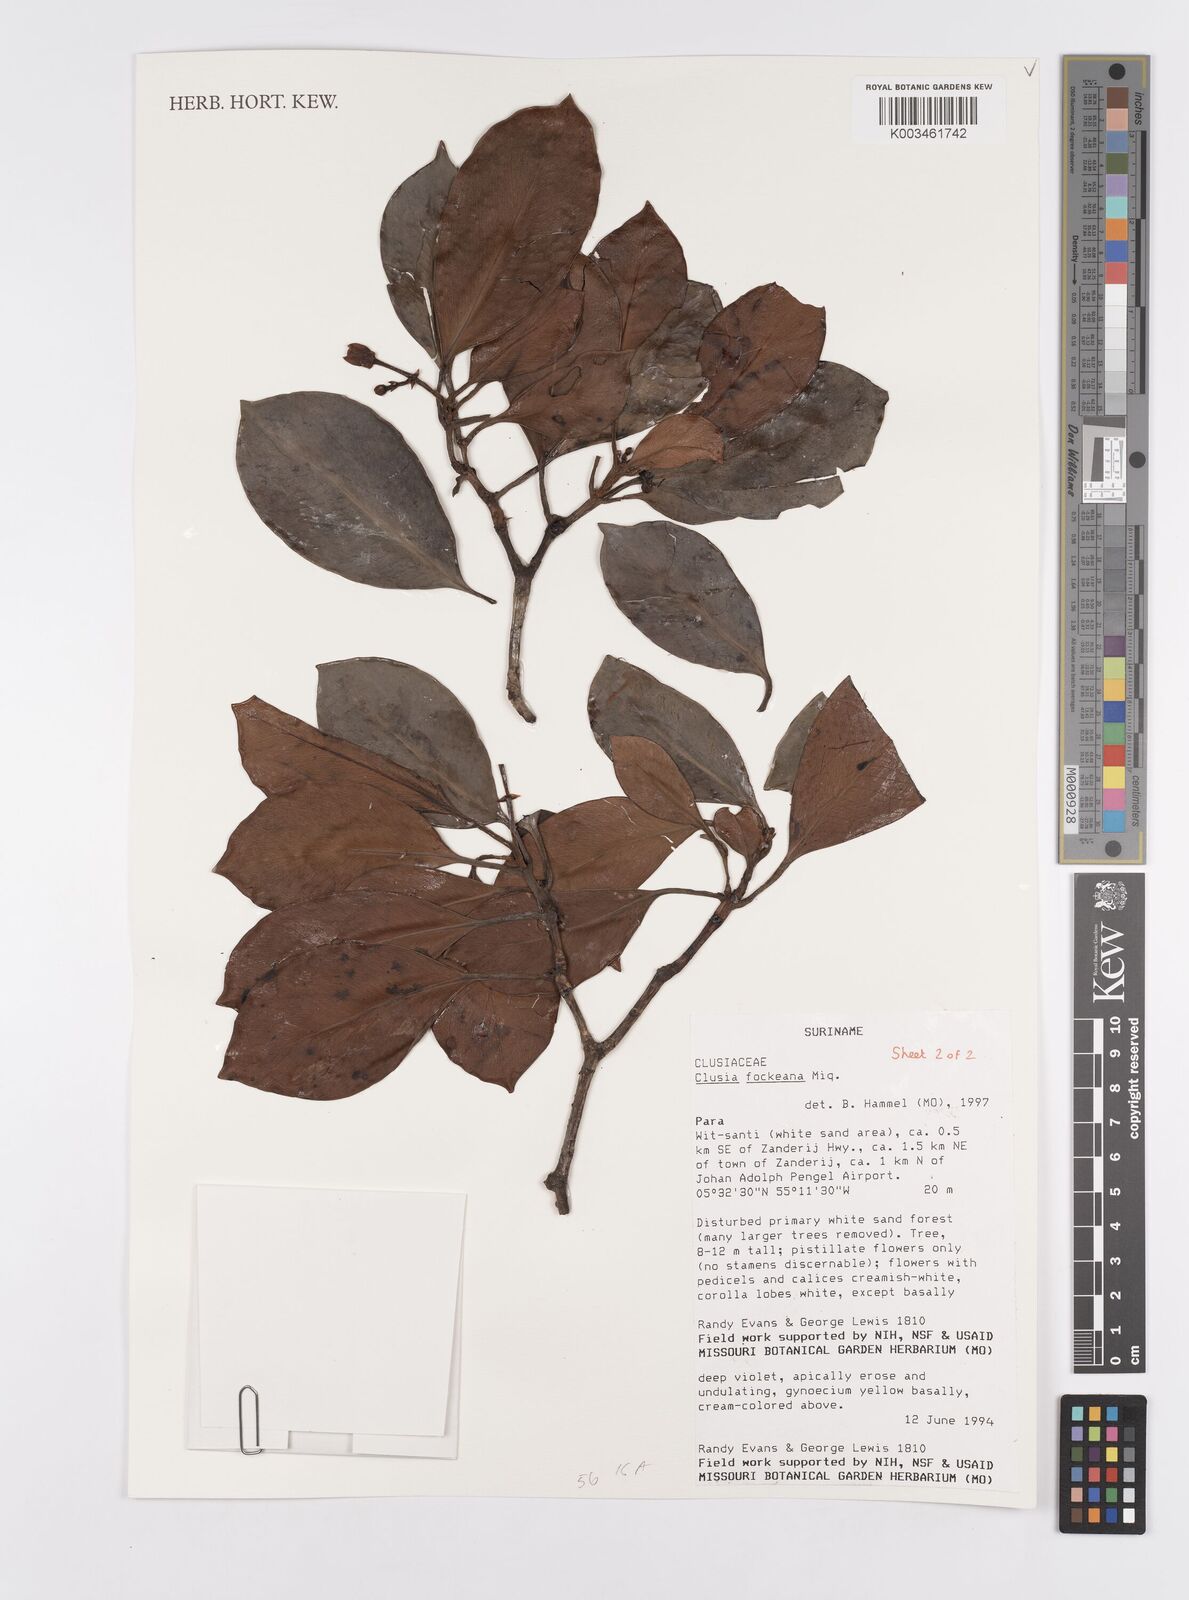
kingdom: Plantae
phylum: Tracheophyta
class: Magnoliopsida
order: Malpighiales
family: Clusiaceae
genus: Clusia
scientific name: Clusia fockeana
